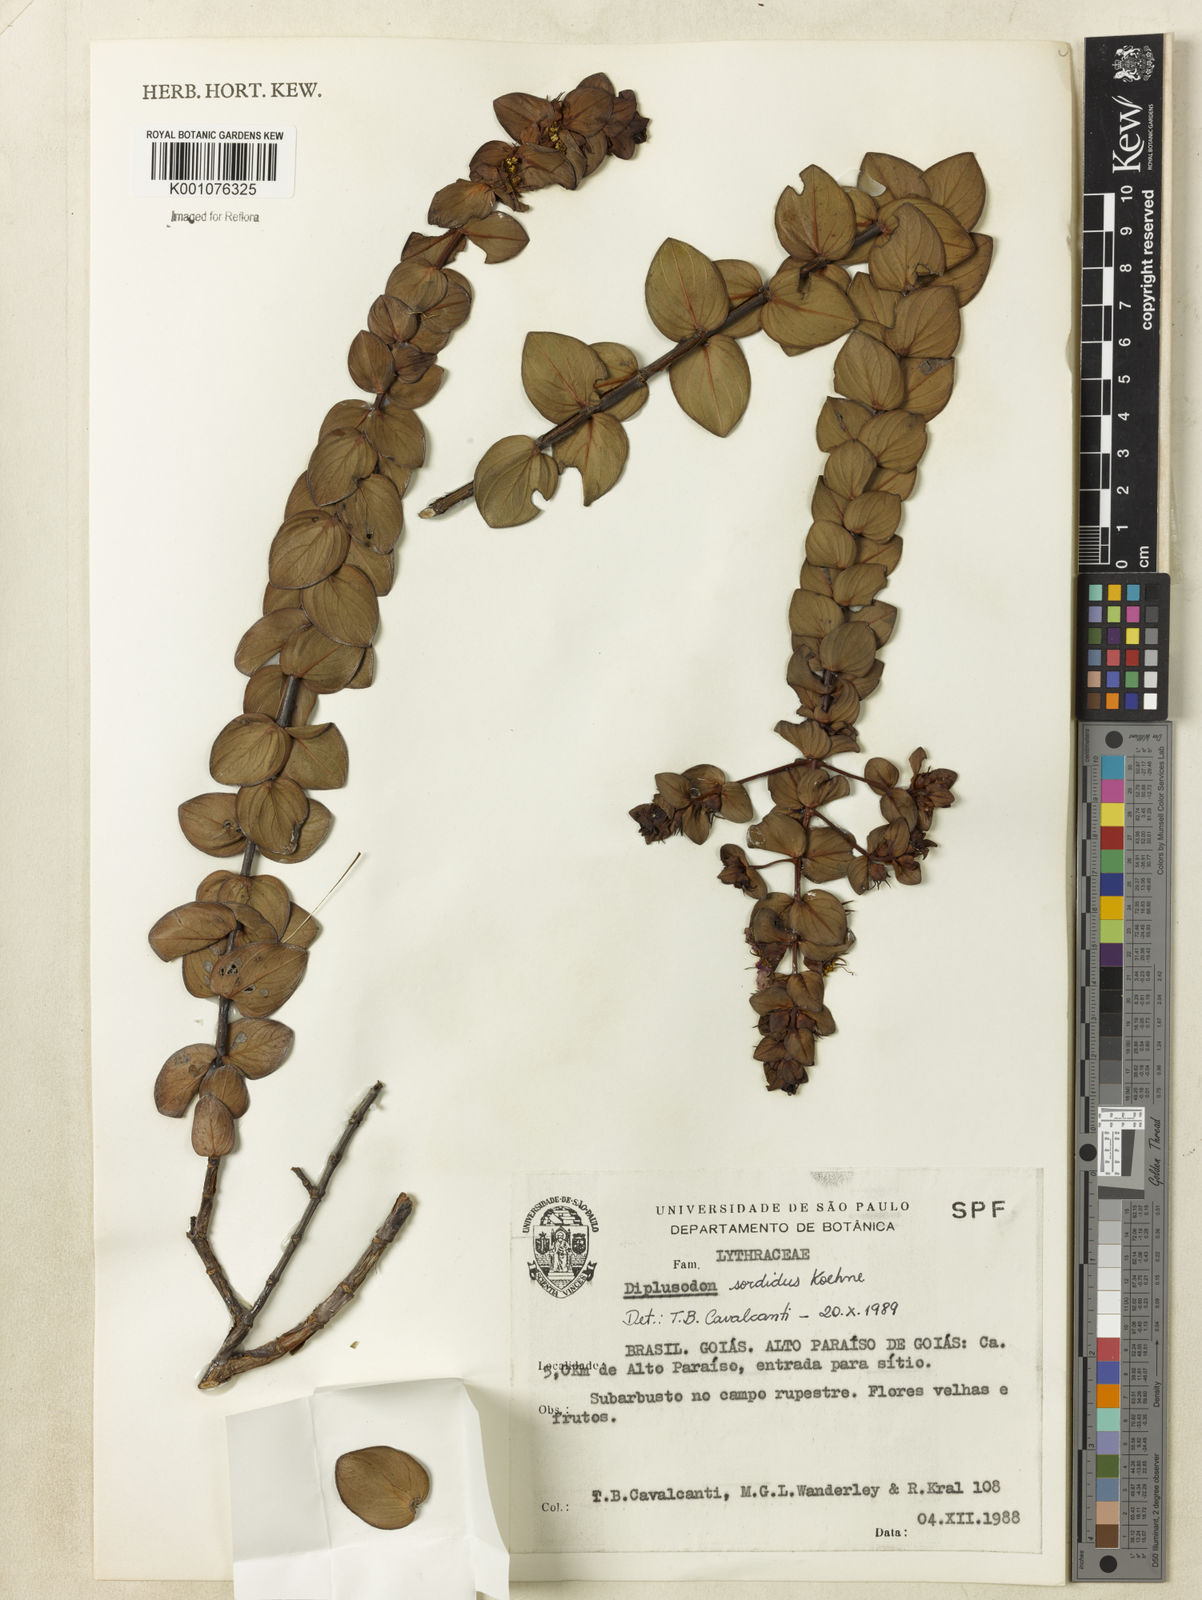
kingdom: Plantae
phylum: Tracheophyta
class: Magnoliopsida
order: Myrtales
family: Lythraceae
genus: Diplusodon
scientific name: Diplusodon sordidus
